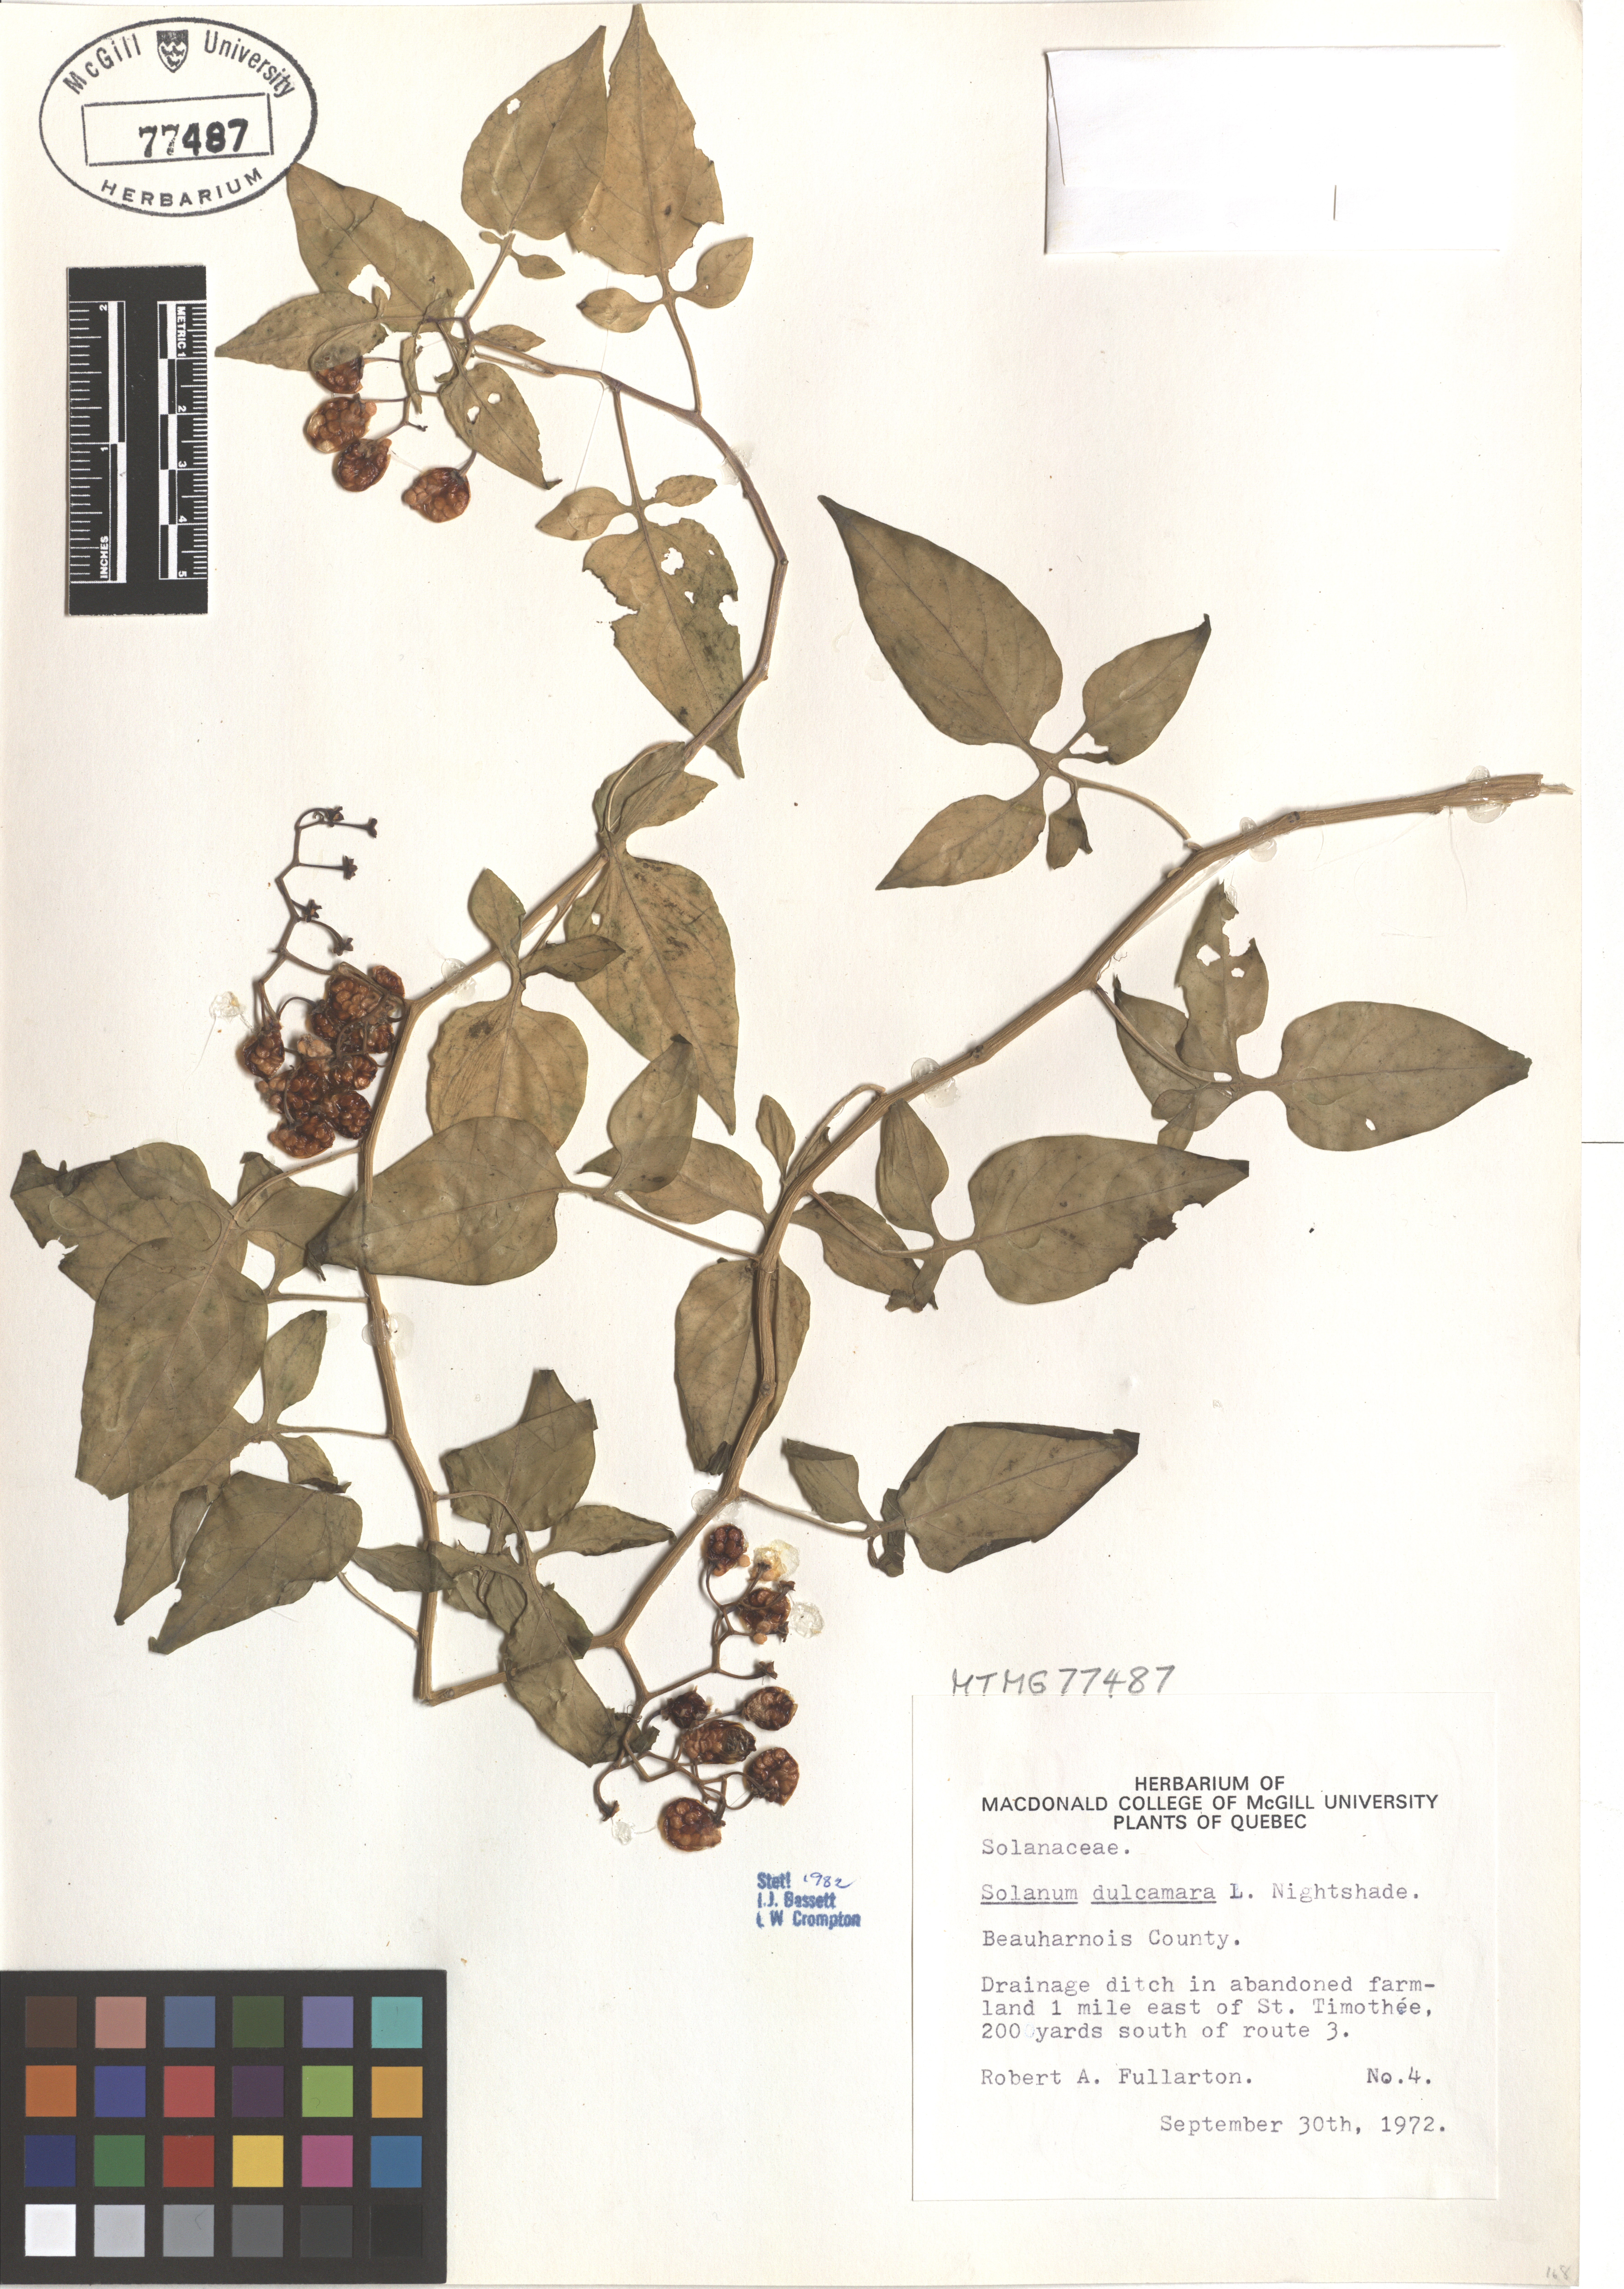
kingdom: Plantae
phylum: Tracheophyta
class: Magnoliopsida
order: Solanales
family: Solanaceae
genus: Solanum
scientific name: Solanum dulcamara
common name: Climbing nightshade
